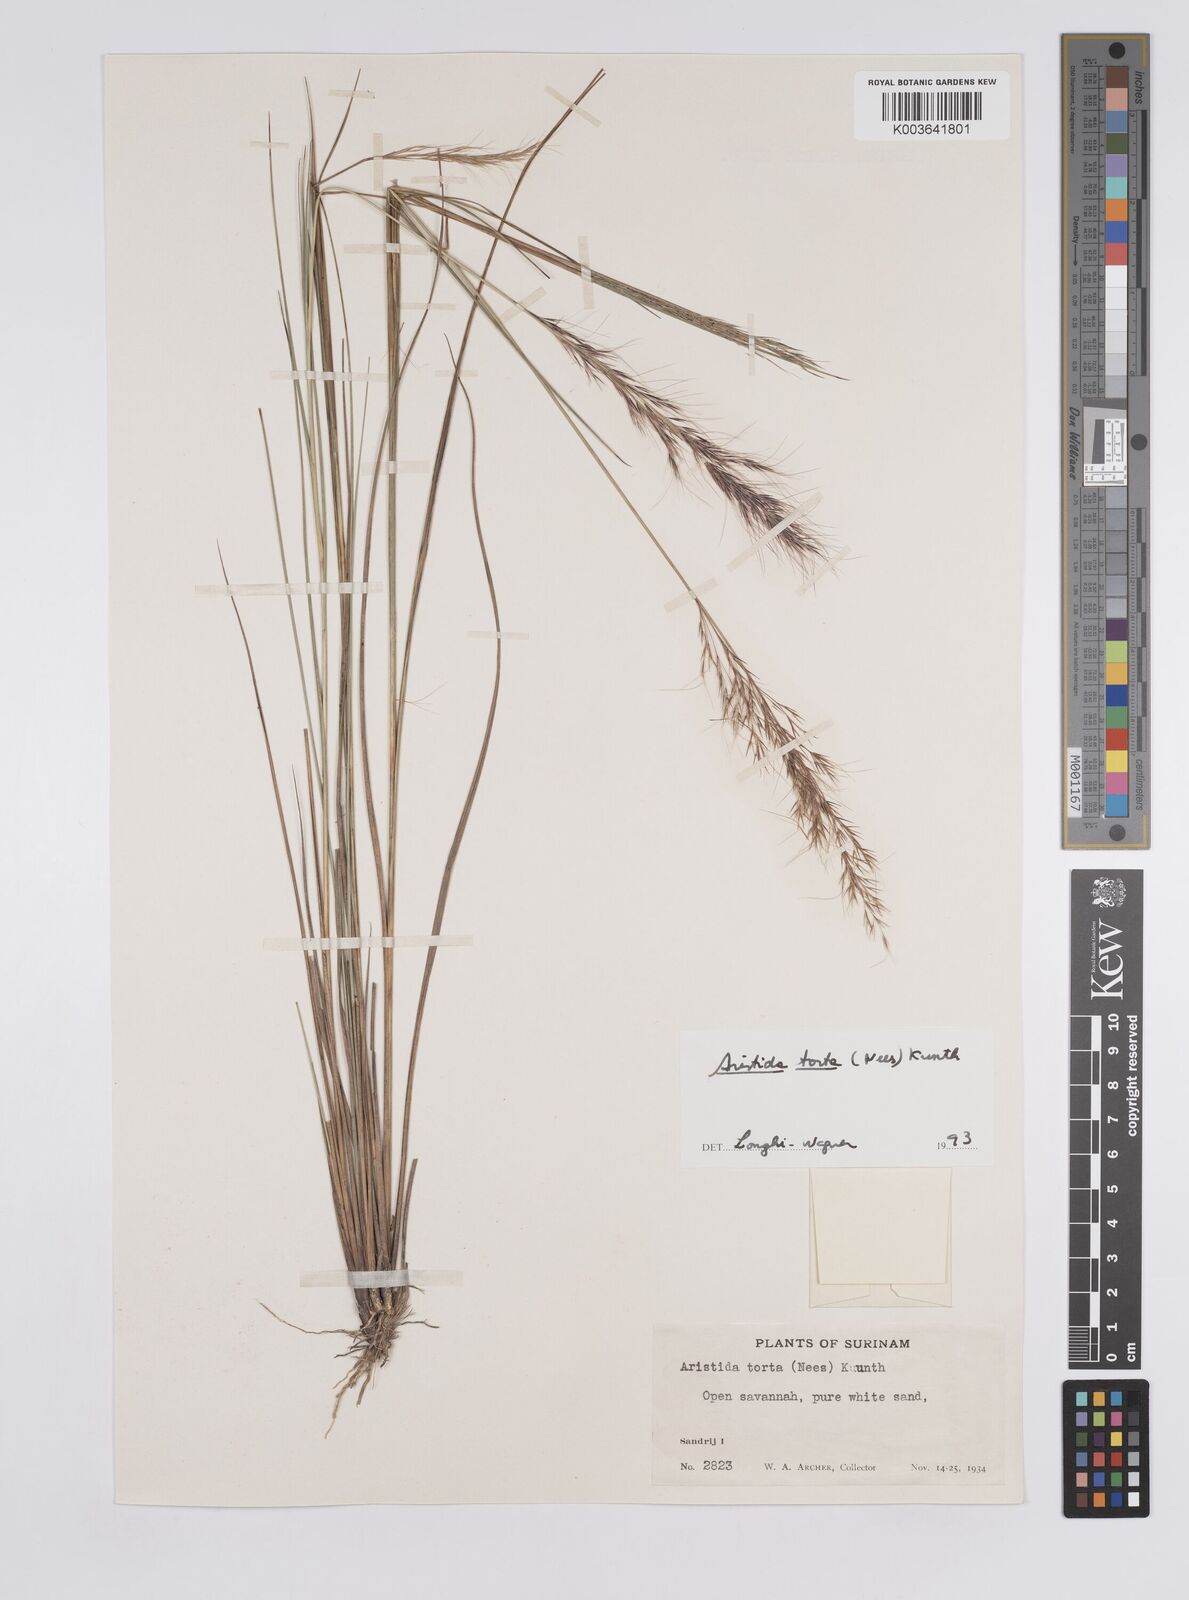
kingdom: Plantae
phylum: Tracheophyta
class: Liliopsida
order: Poales
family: Poaceae
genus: Aristida
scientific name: Aristida torta
